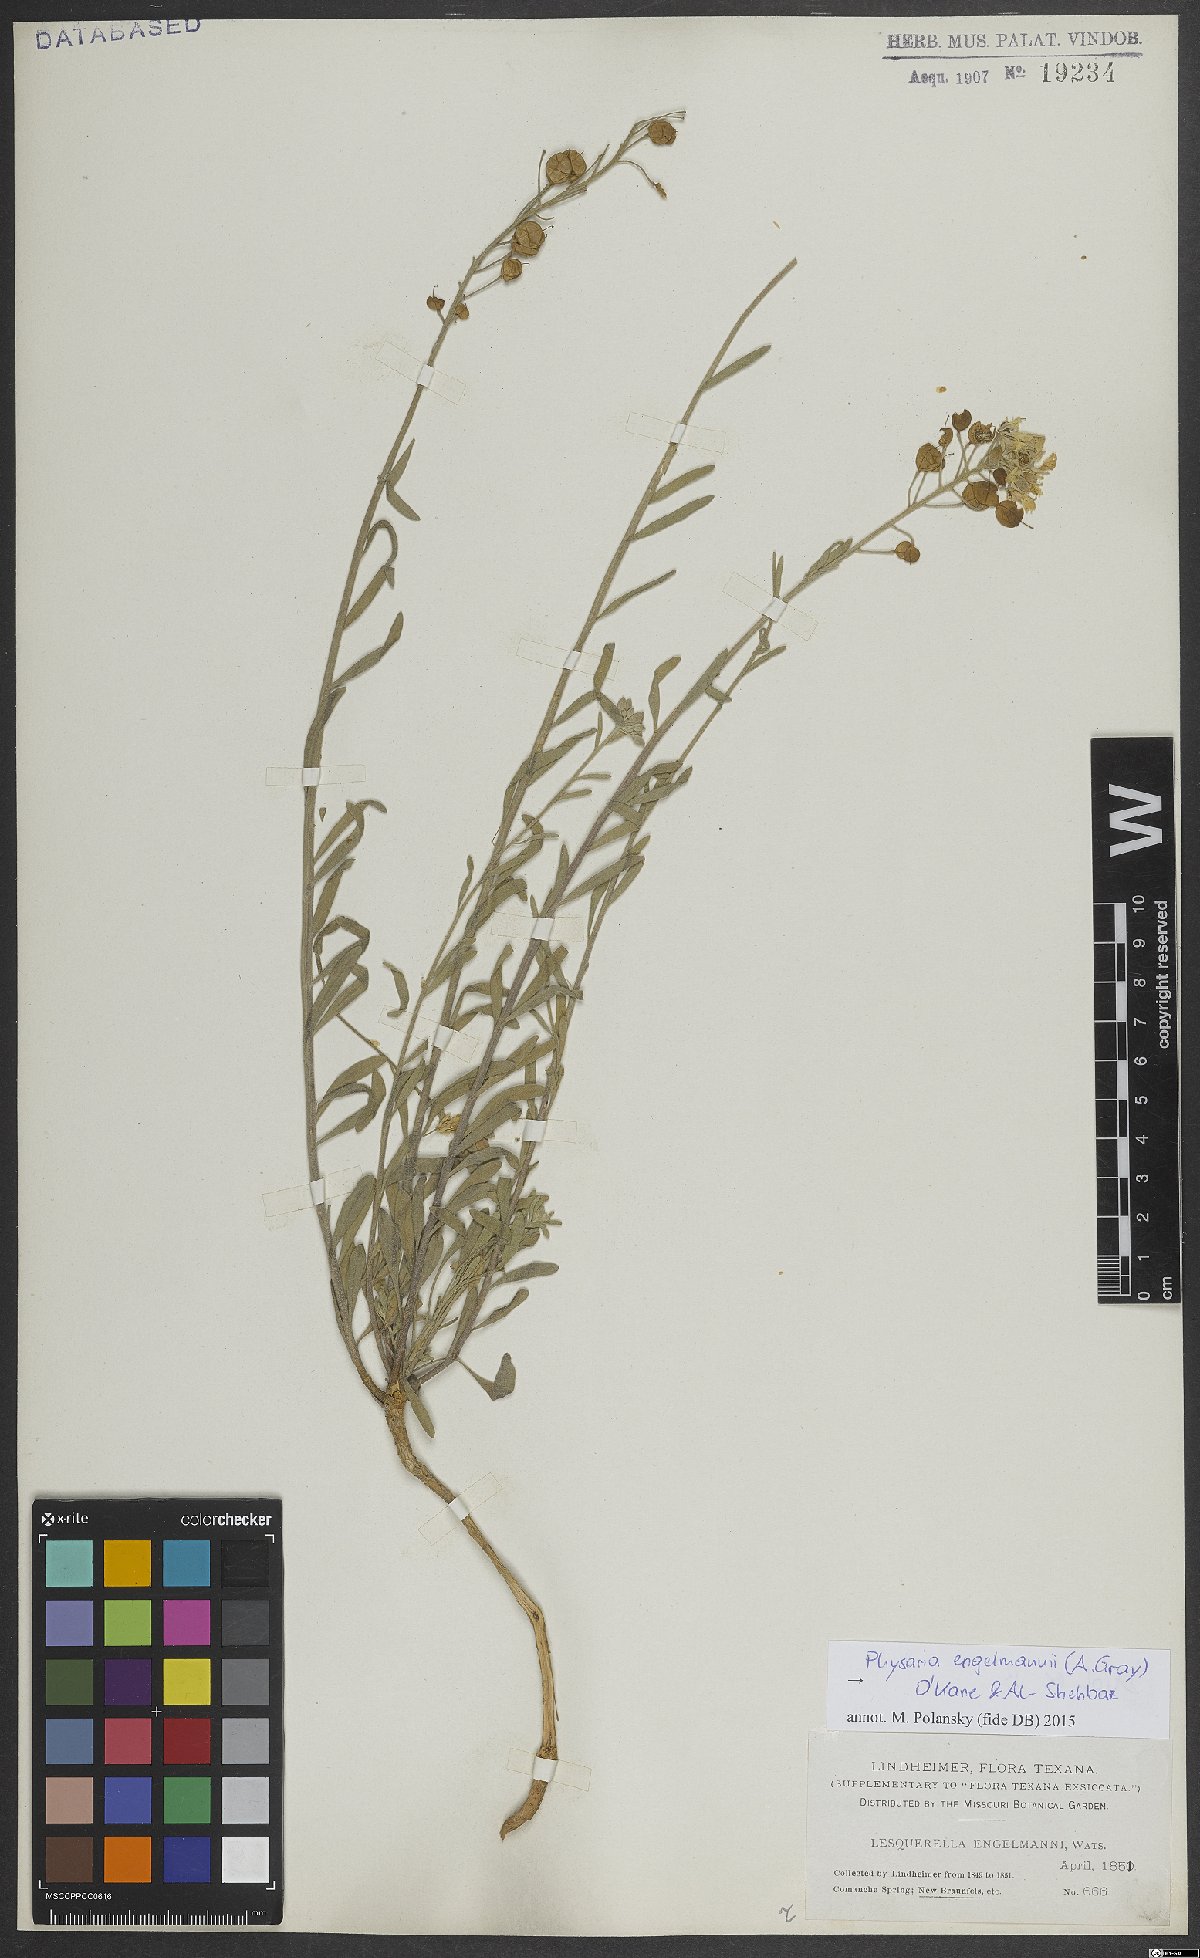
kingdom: Plantae
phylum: Tracheophyta
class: Magnoliopsida
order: Brassicales
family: Brassicaceae
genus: Physaria
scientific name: Physaria engelmannii
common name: Engelmann's bladderpod
